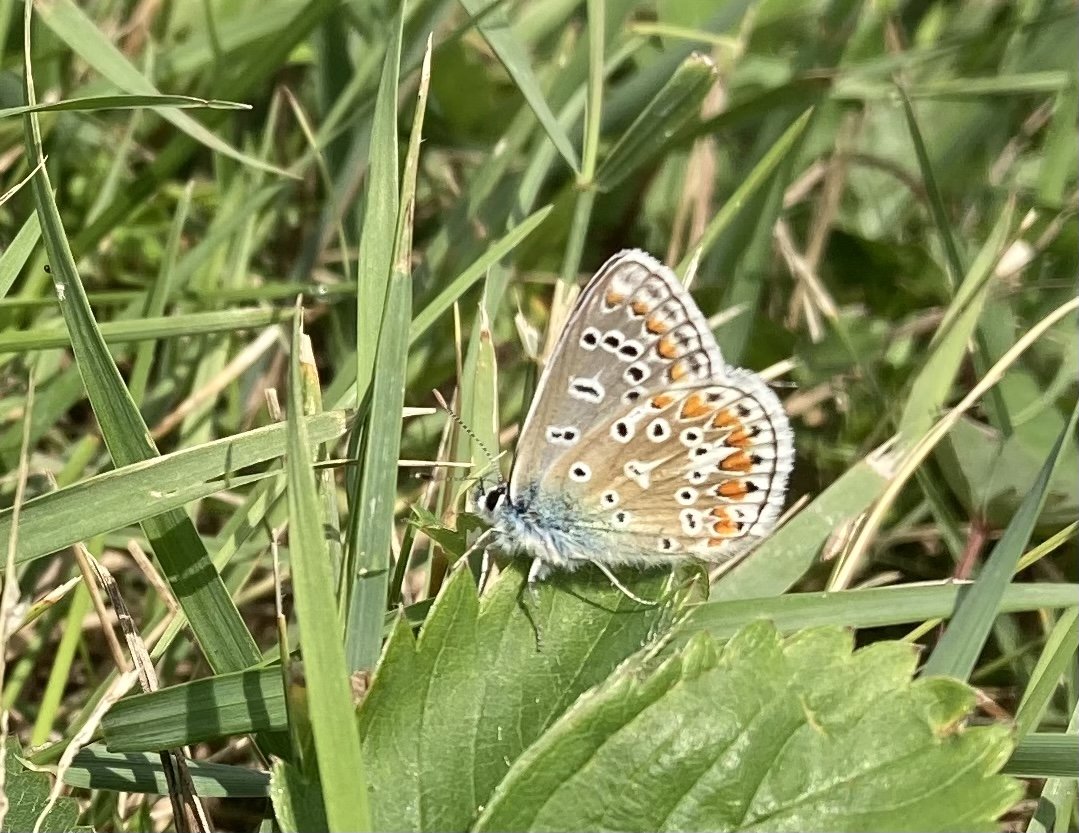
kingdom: Animalia
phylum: Arthropoda
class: Insecta
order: Lepidoptera
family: Lycaenidae
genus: Polyommatus
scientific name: Polyommatus icarus
